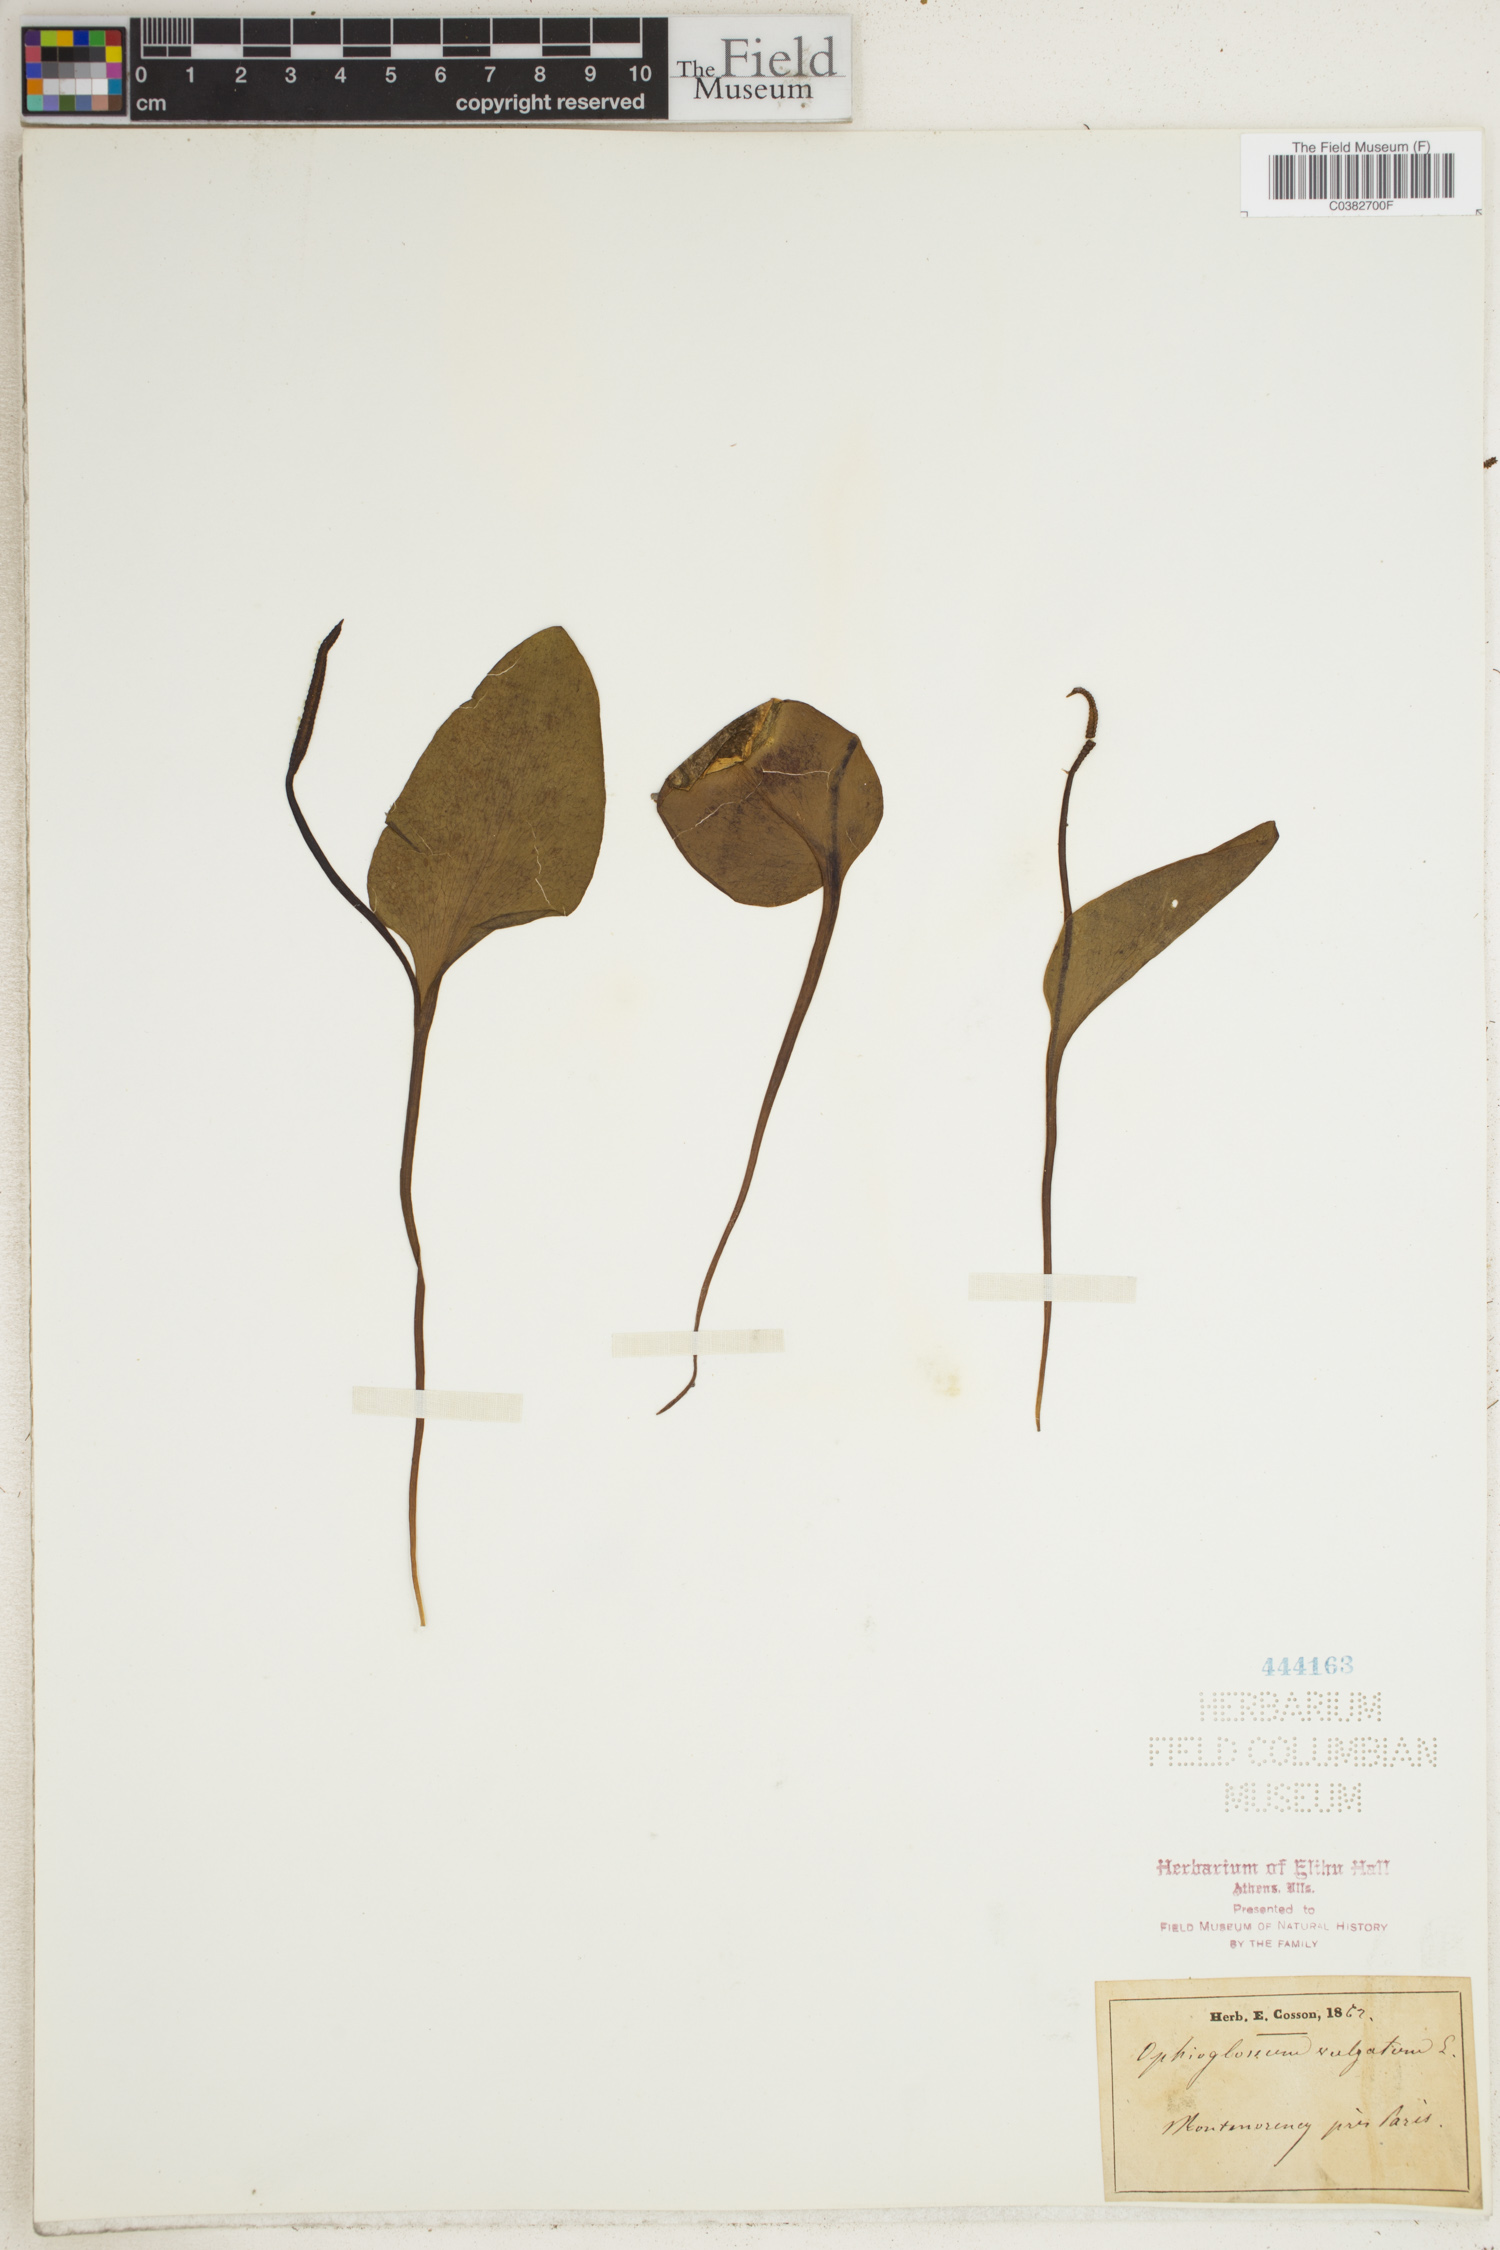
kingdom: Plantae
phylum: Tracheophyta
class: Polypodiopsida
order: Ophioglossales
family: Ophioglossaceae
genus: Ophioglossum
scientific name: Ophioglossum vulgatum
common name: Adder's-tongue
